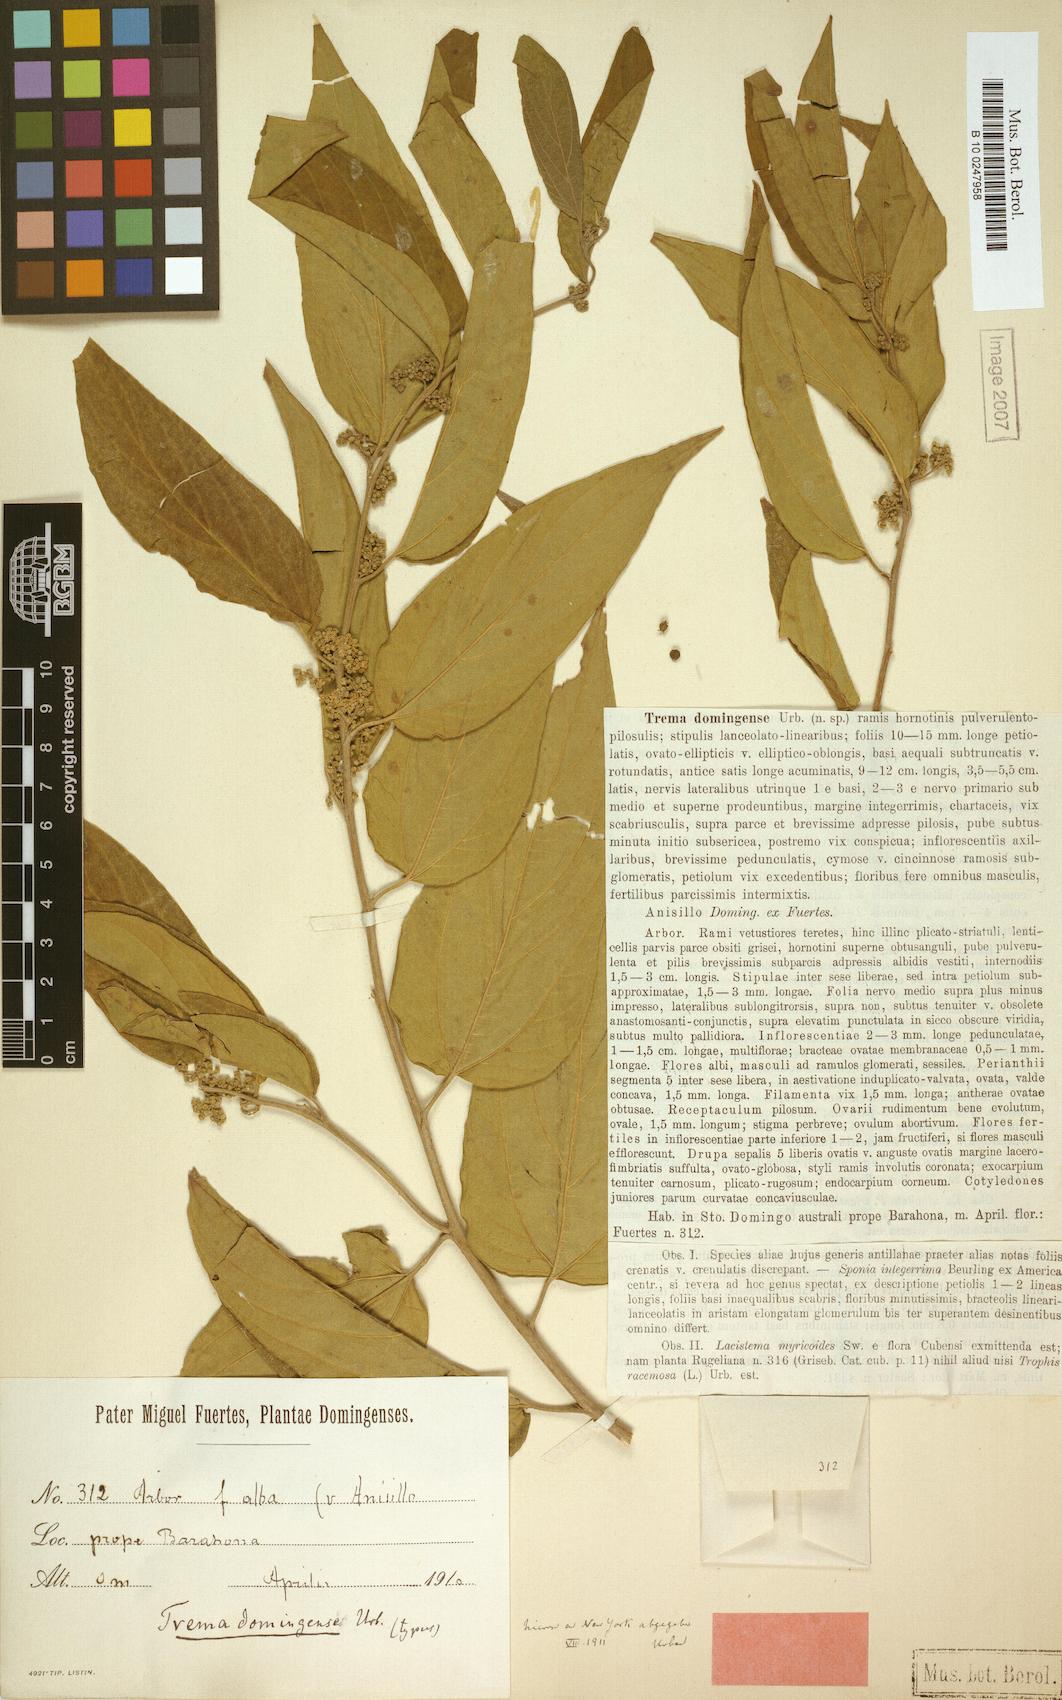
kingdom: Plantae
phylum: Tracheophyta
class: Magnoliopsida
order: Rosales
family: Cannabaceae
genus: Trema
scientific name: Trema domingense
